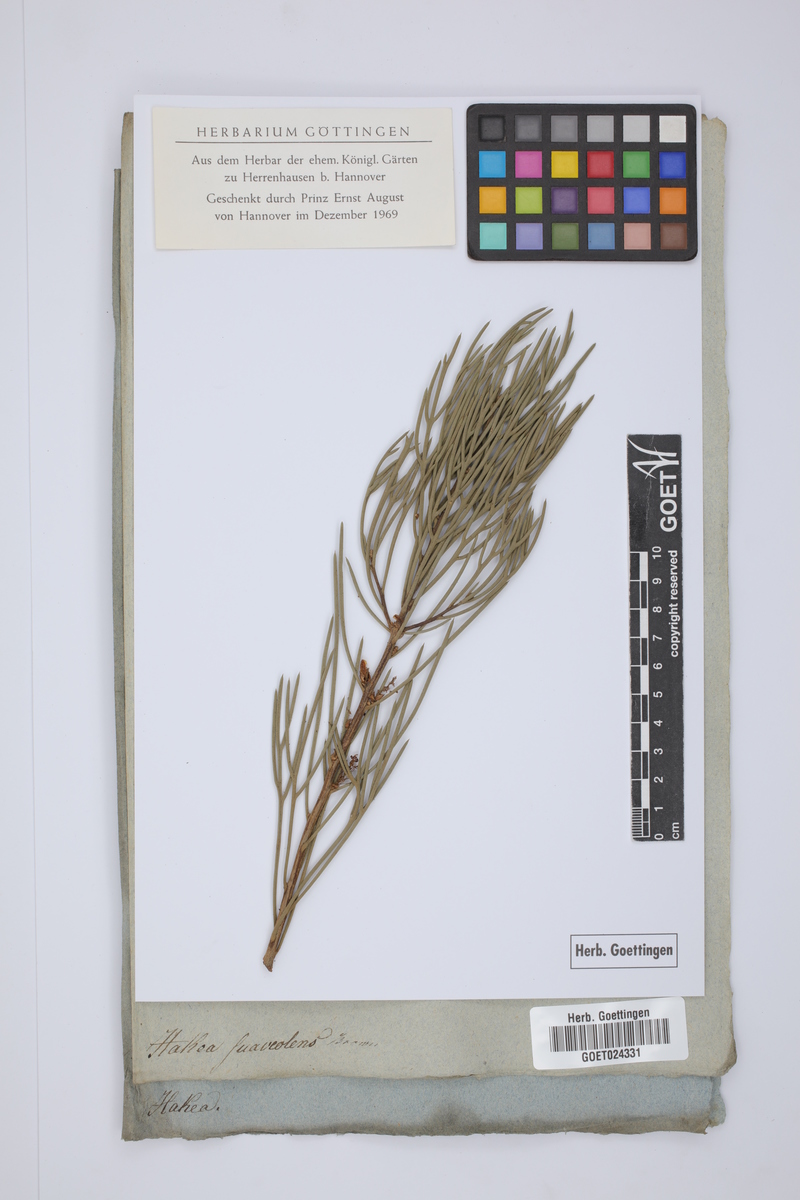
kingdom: Plantae
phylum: Tracheophyta
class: Magnoliopsida
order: Proteales
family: Proteaceae
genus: Hakea
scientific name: Hakea drupacea
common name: Sweet hakea
